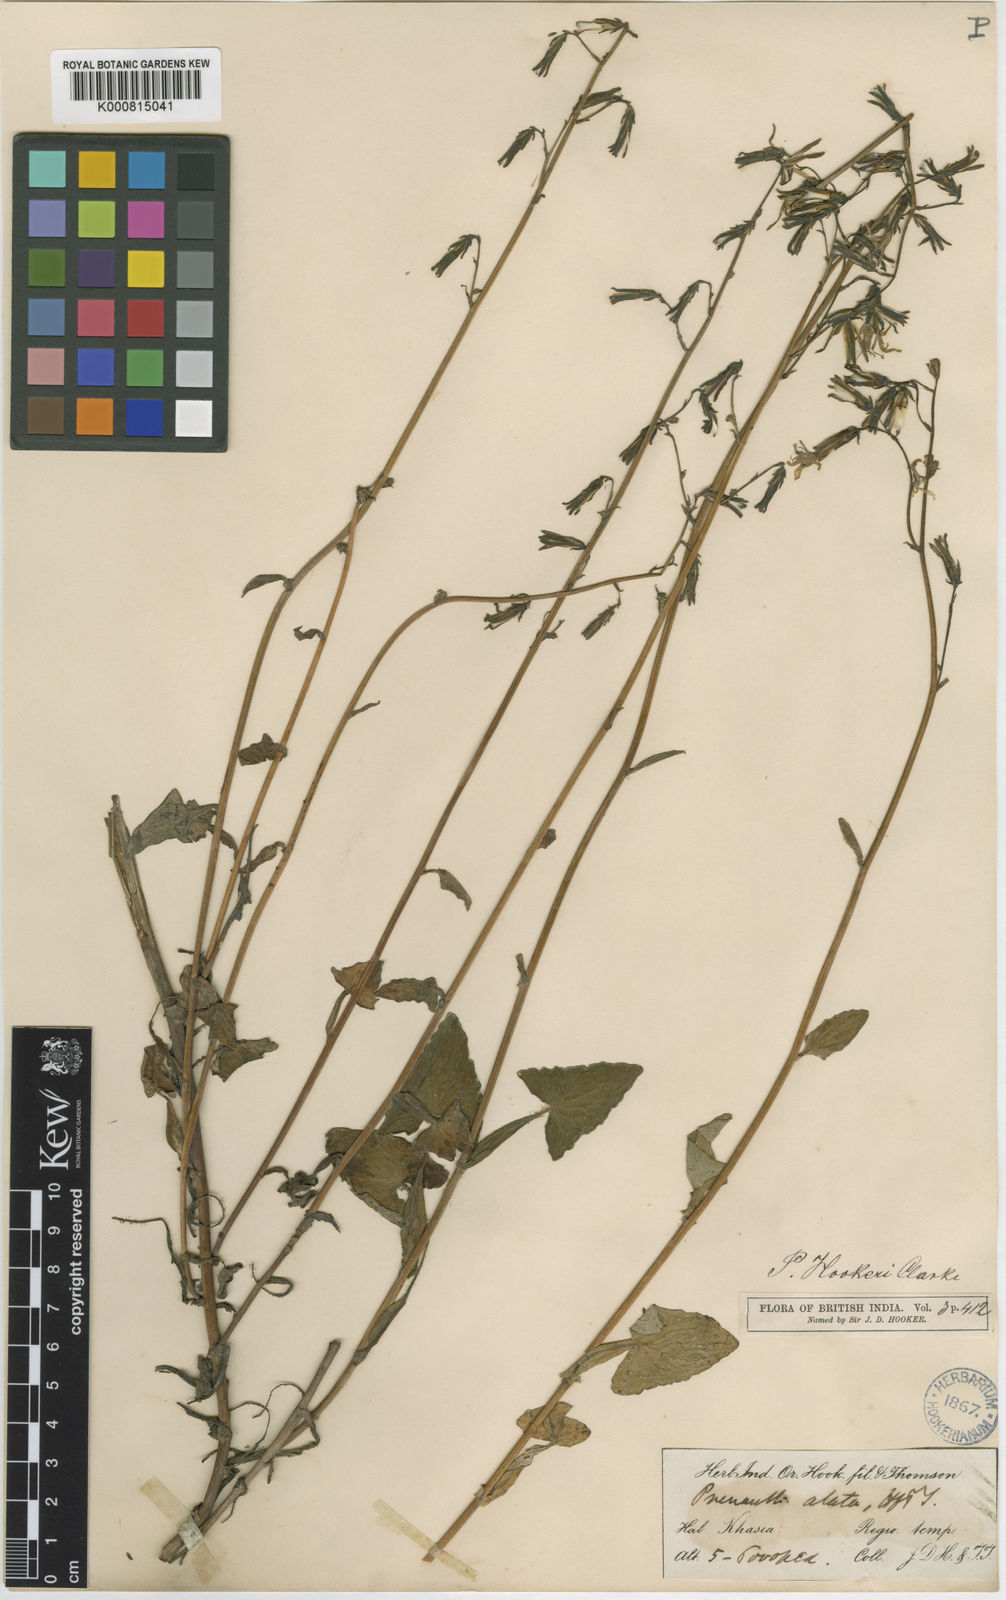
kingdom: Plantae
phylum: Tracheophyta
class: Magnoliopsida
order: Asterales
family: Asteraceae
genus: Prenanthes
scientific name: Prenanthes hookeri
